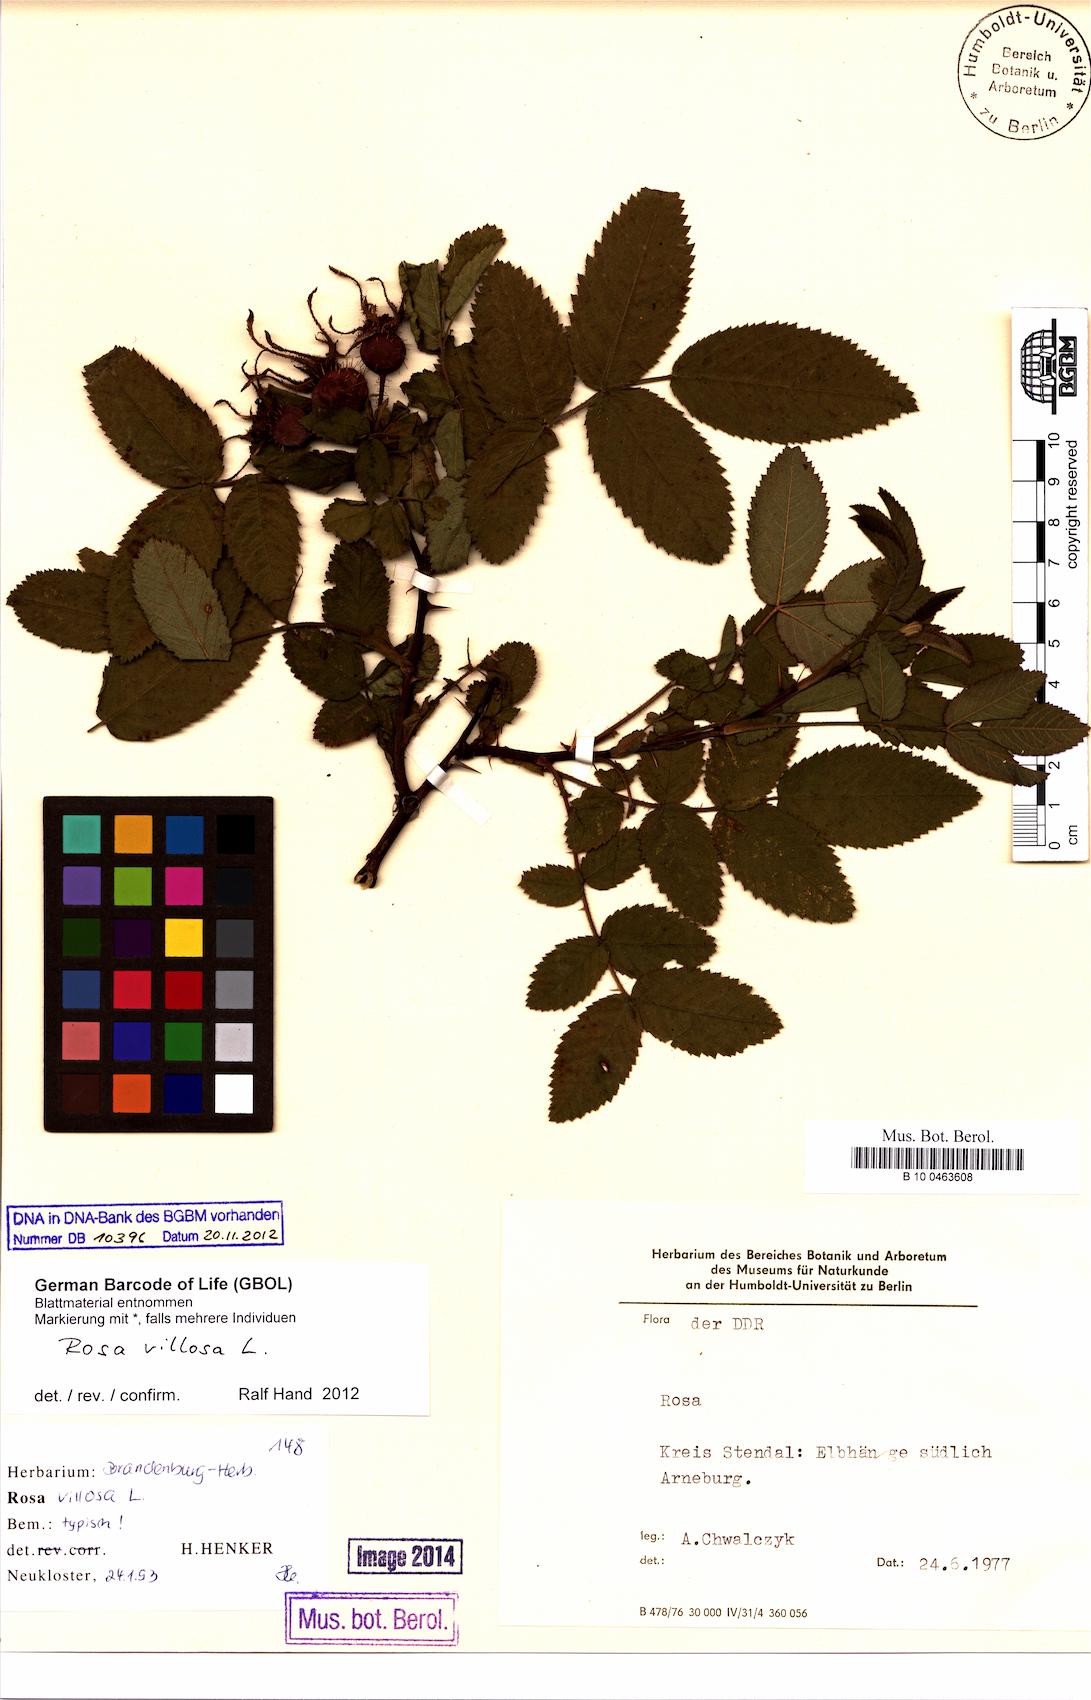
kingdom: Plantae
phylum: Tracheophyta
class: Magnoliopsida
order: Rosales
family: Rosaceae
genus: Rosa
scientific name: Rosa villosa
